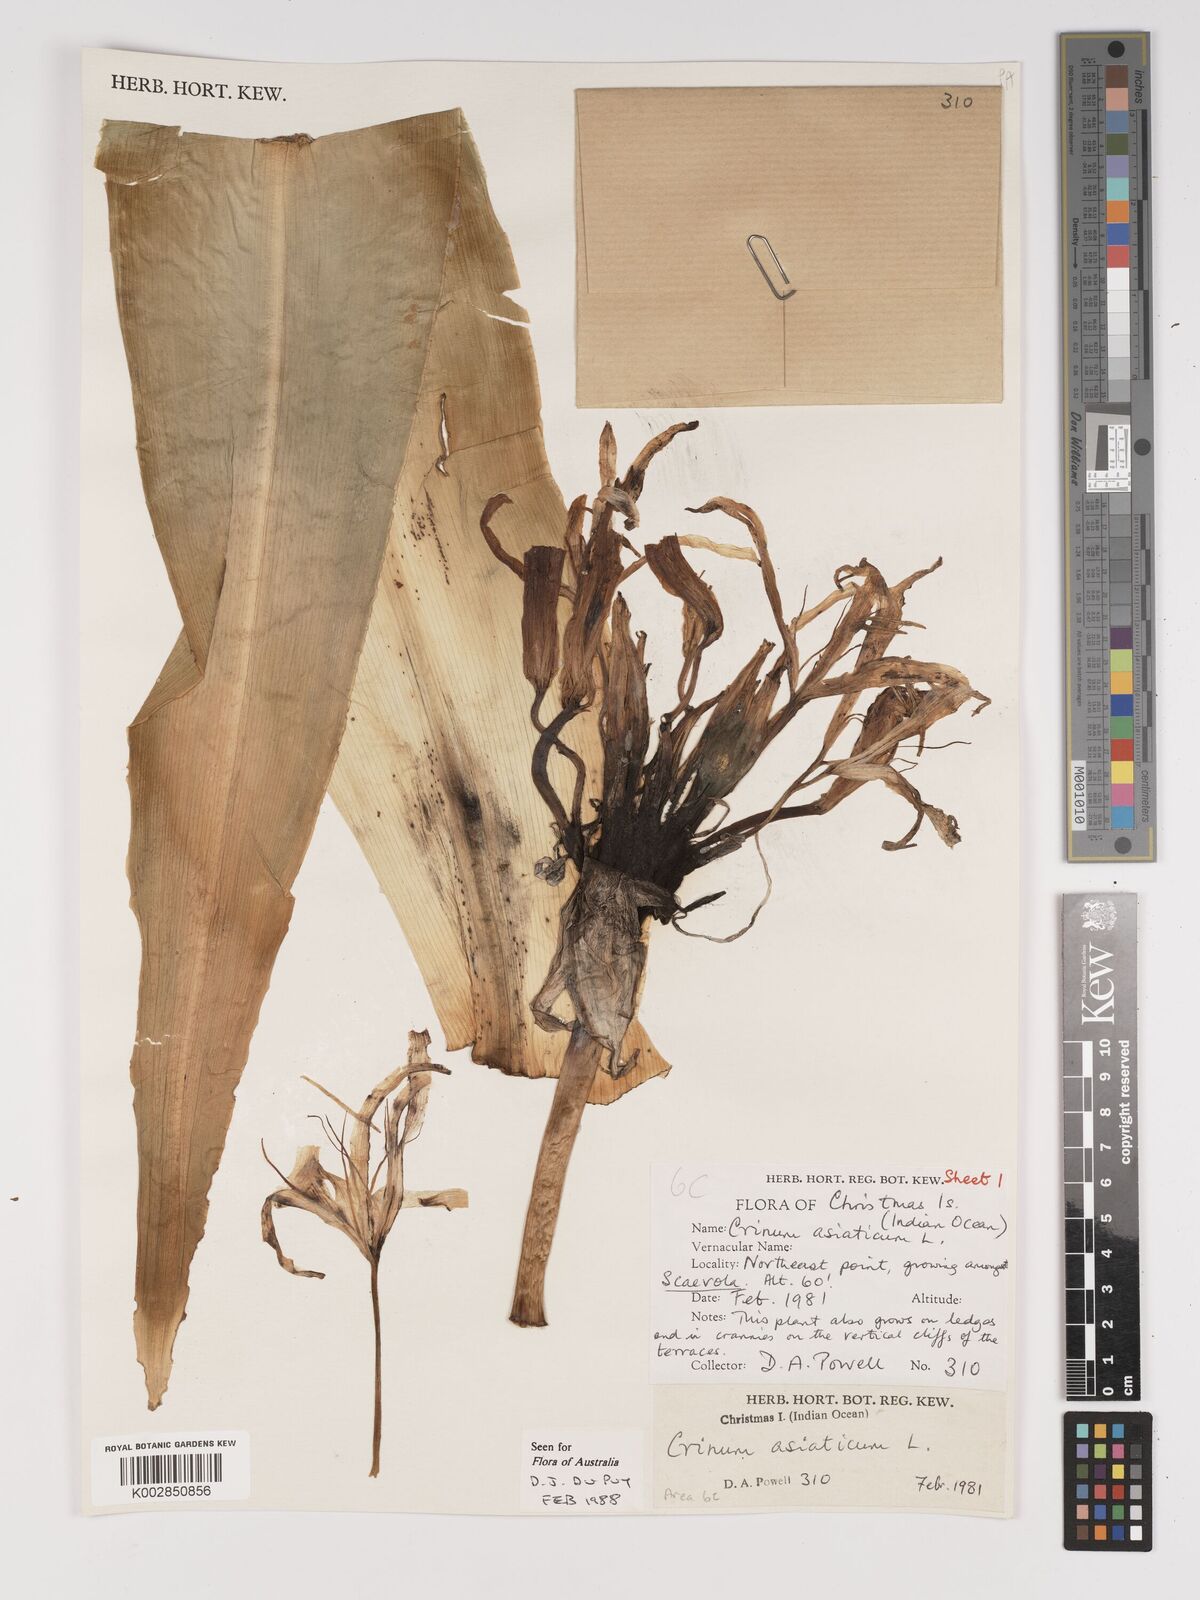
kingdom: Plantae
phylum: Tracheophyta
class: Liliopsida
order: Asparagales
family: Amaryllidaceae
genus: Crinum
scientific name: Crinum asiaticum
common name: Poisonbulb
